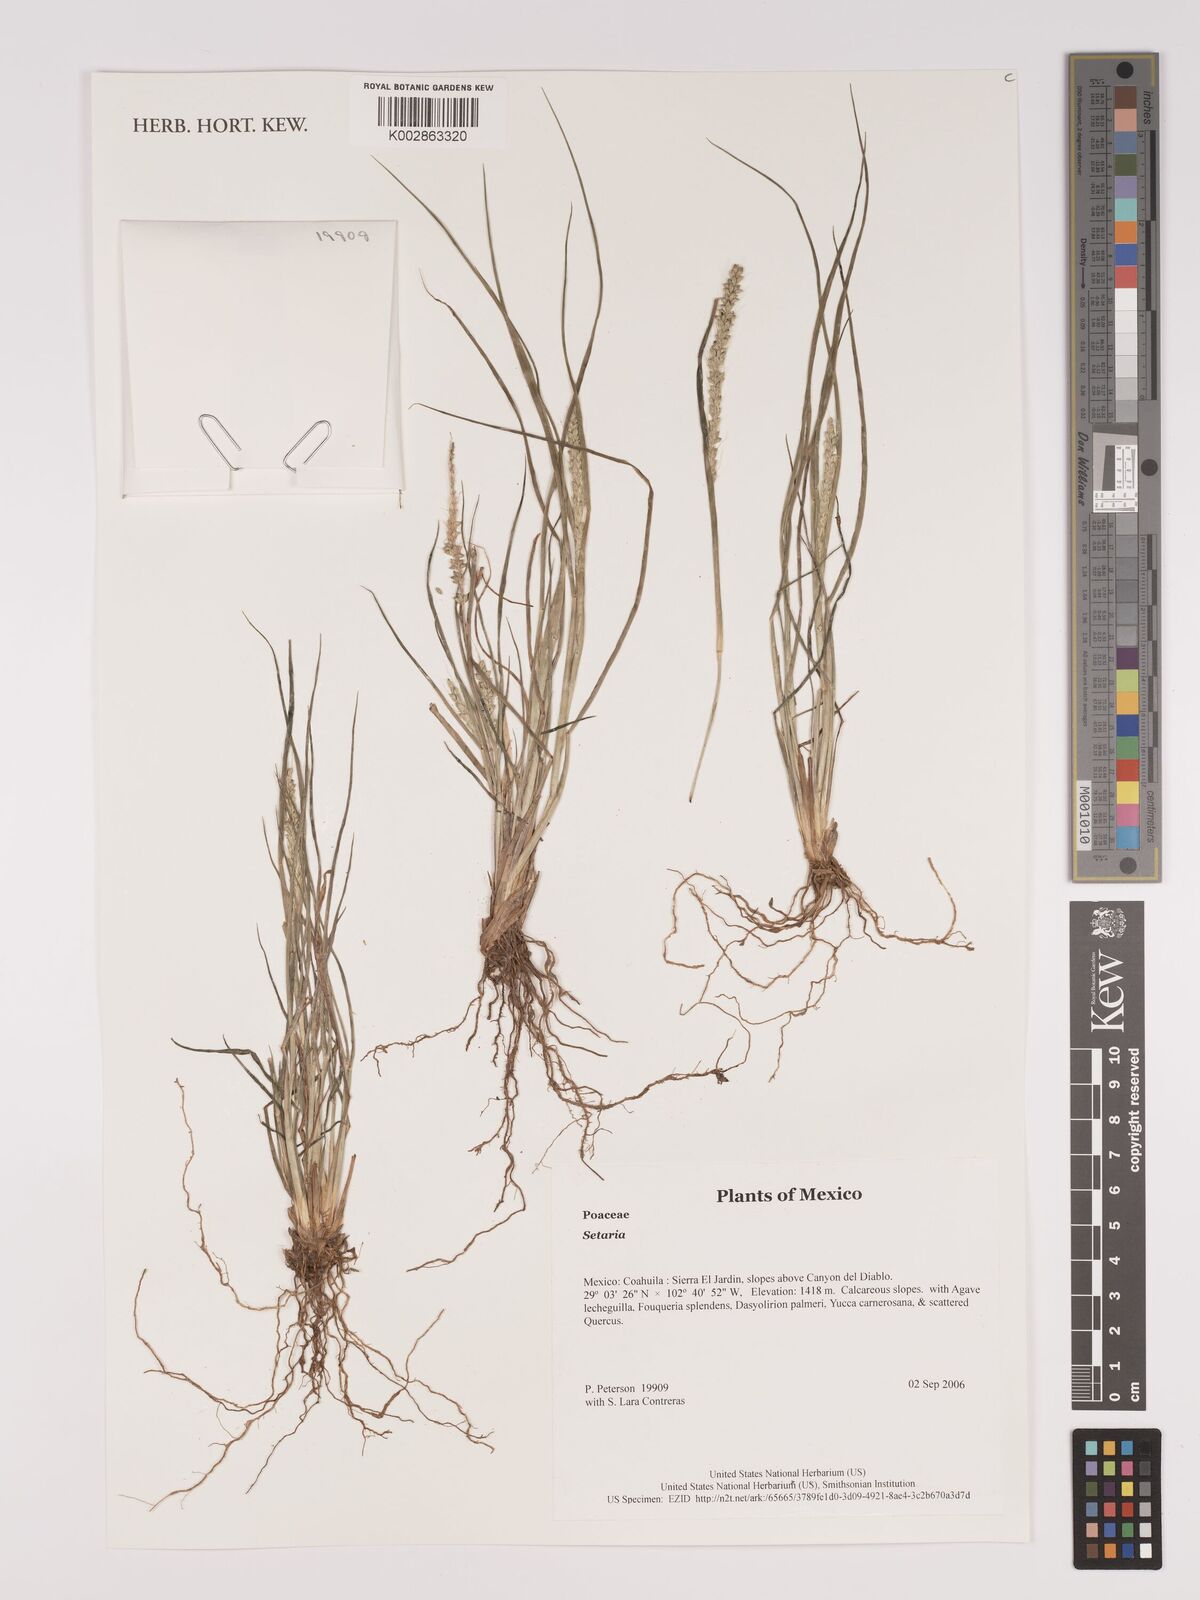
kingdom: Plantae
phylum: Tracheophyta
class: Liliopsida
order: Poales
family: Poaceae
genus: Setaria
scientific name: Setaria
